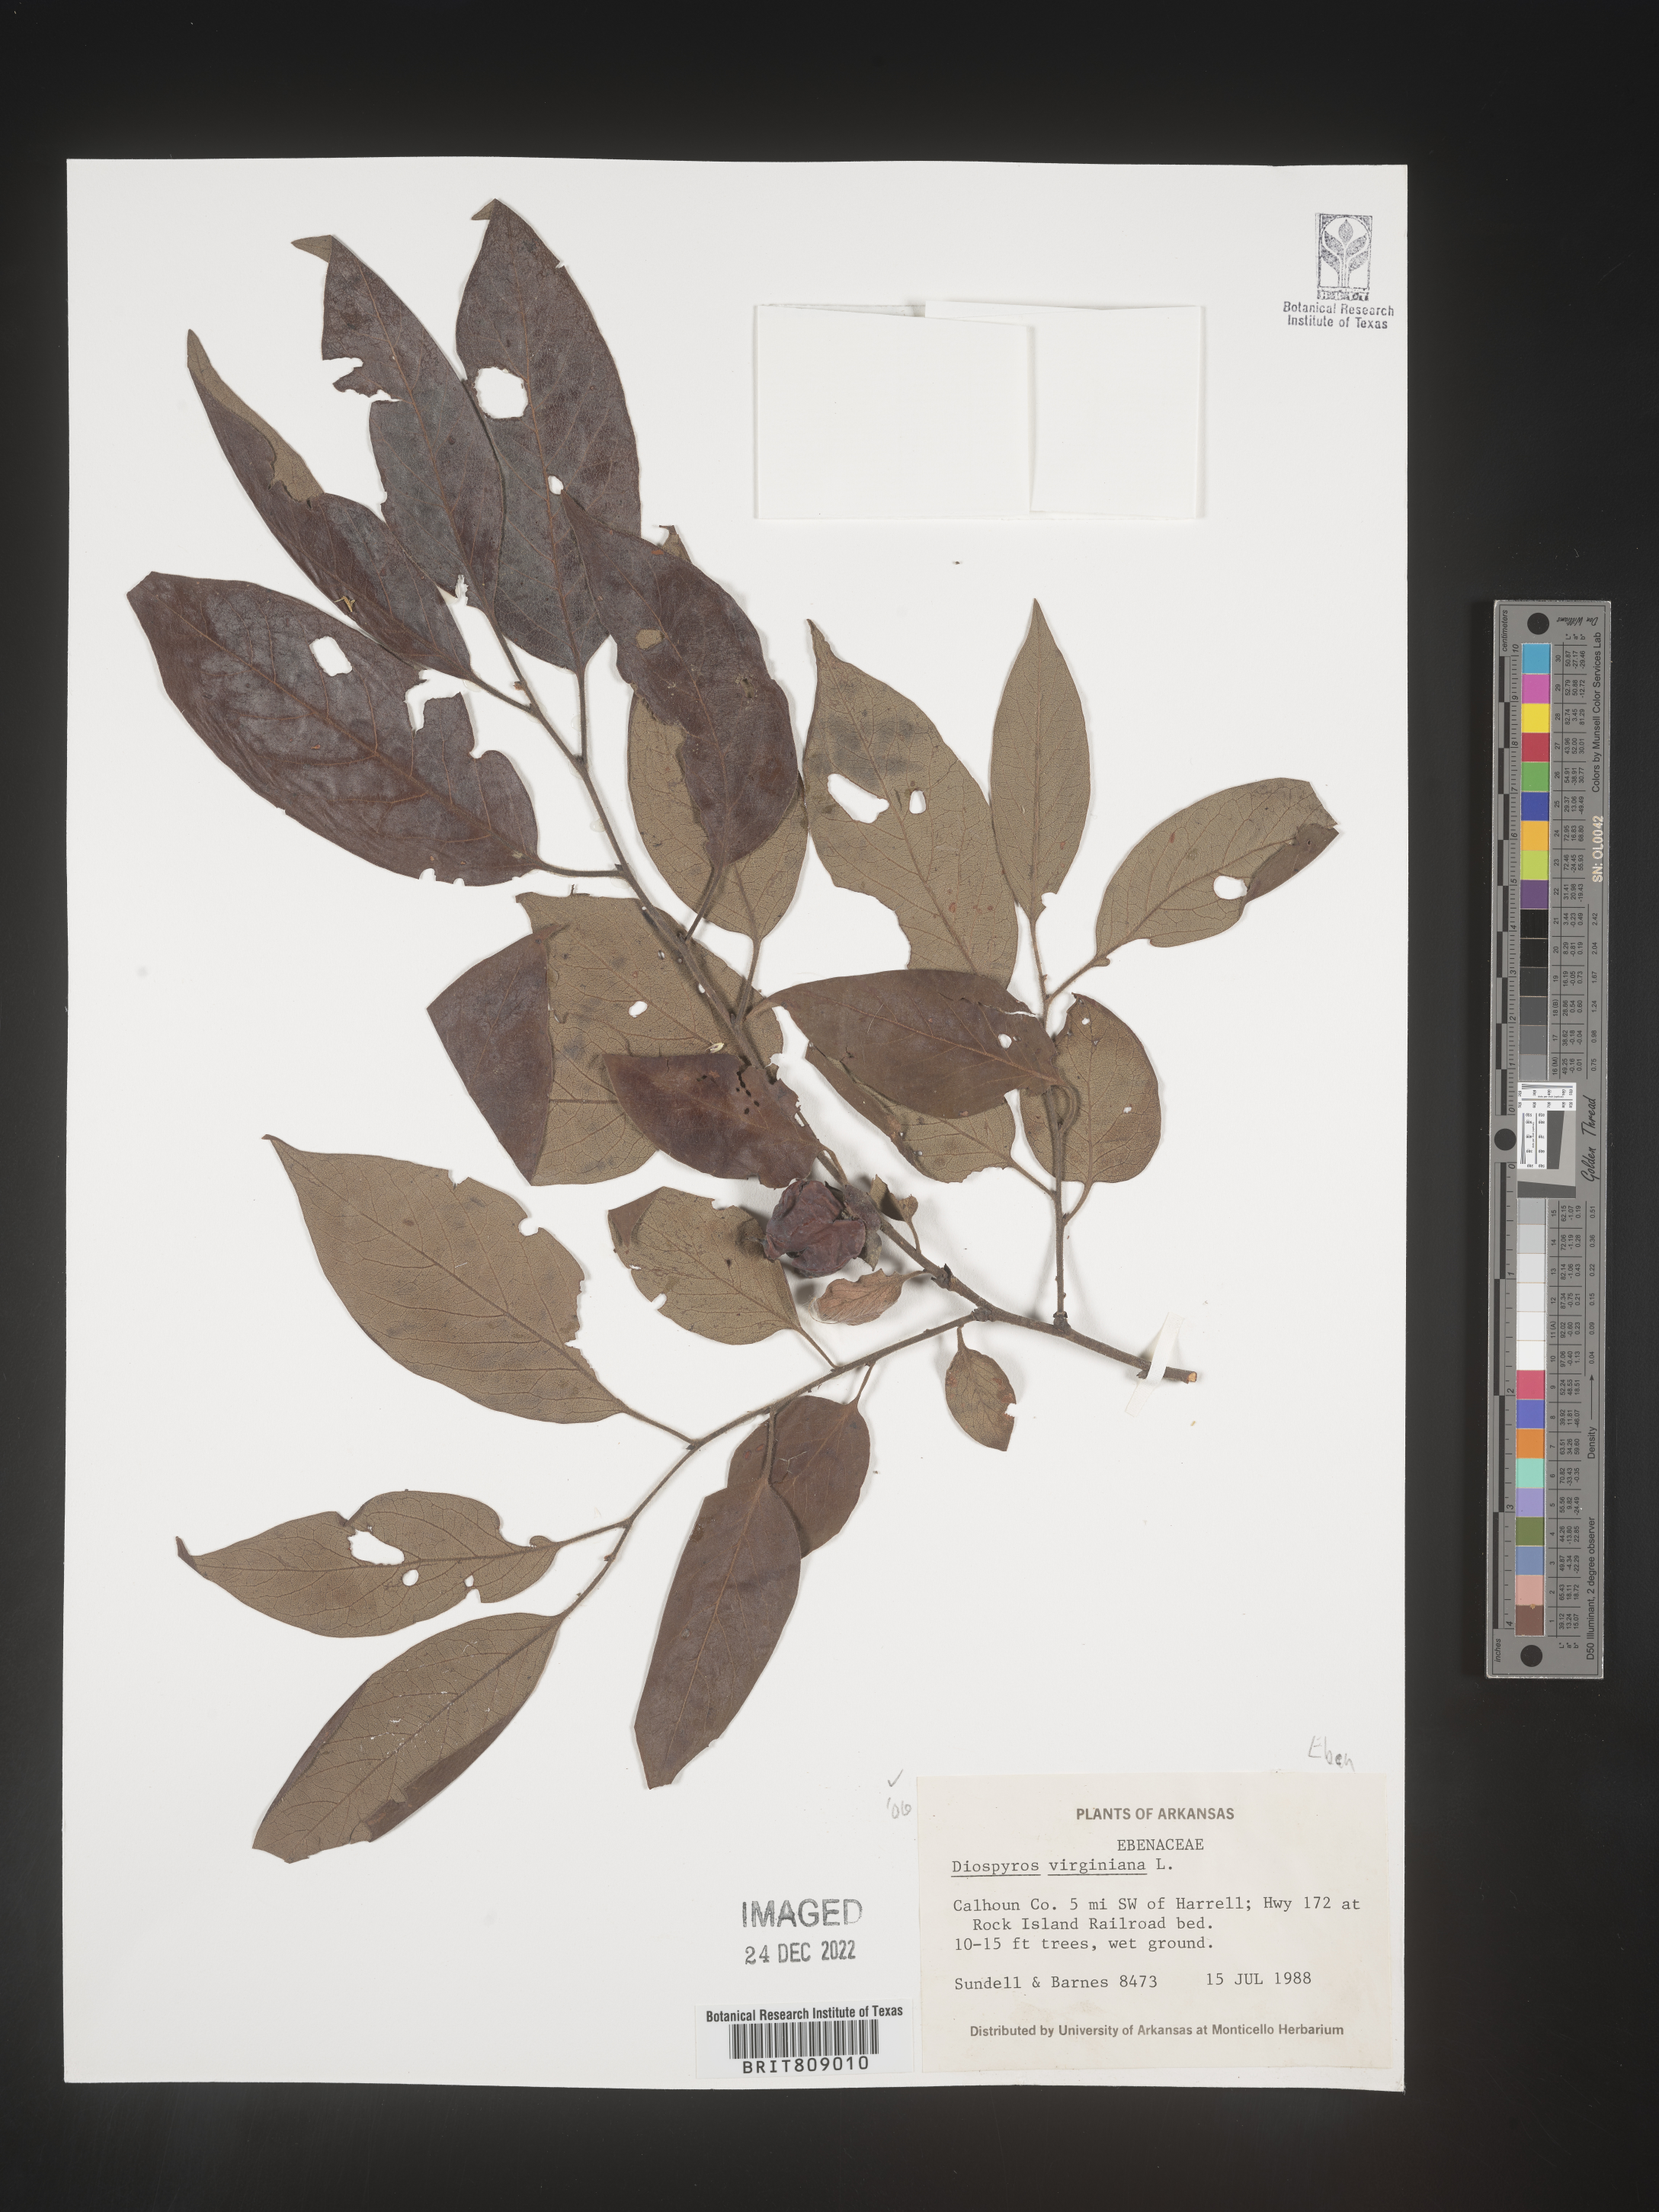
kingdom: Plantae
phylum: Tracheophyta
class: Magnoliopsida
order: Ericales
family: Ebenaceae
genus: Diospyros
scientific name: Diospyros virginiana
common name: Persimmon
